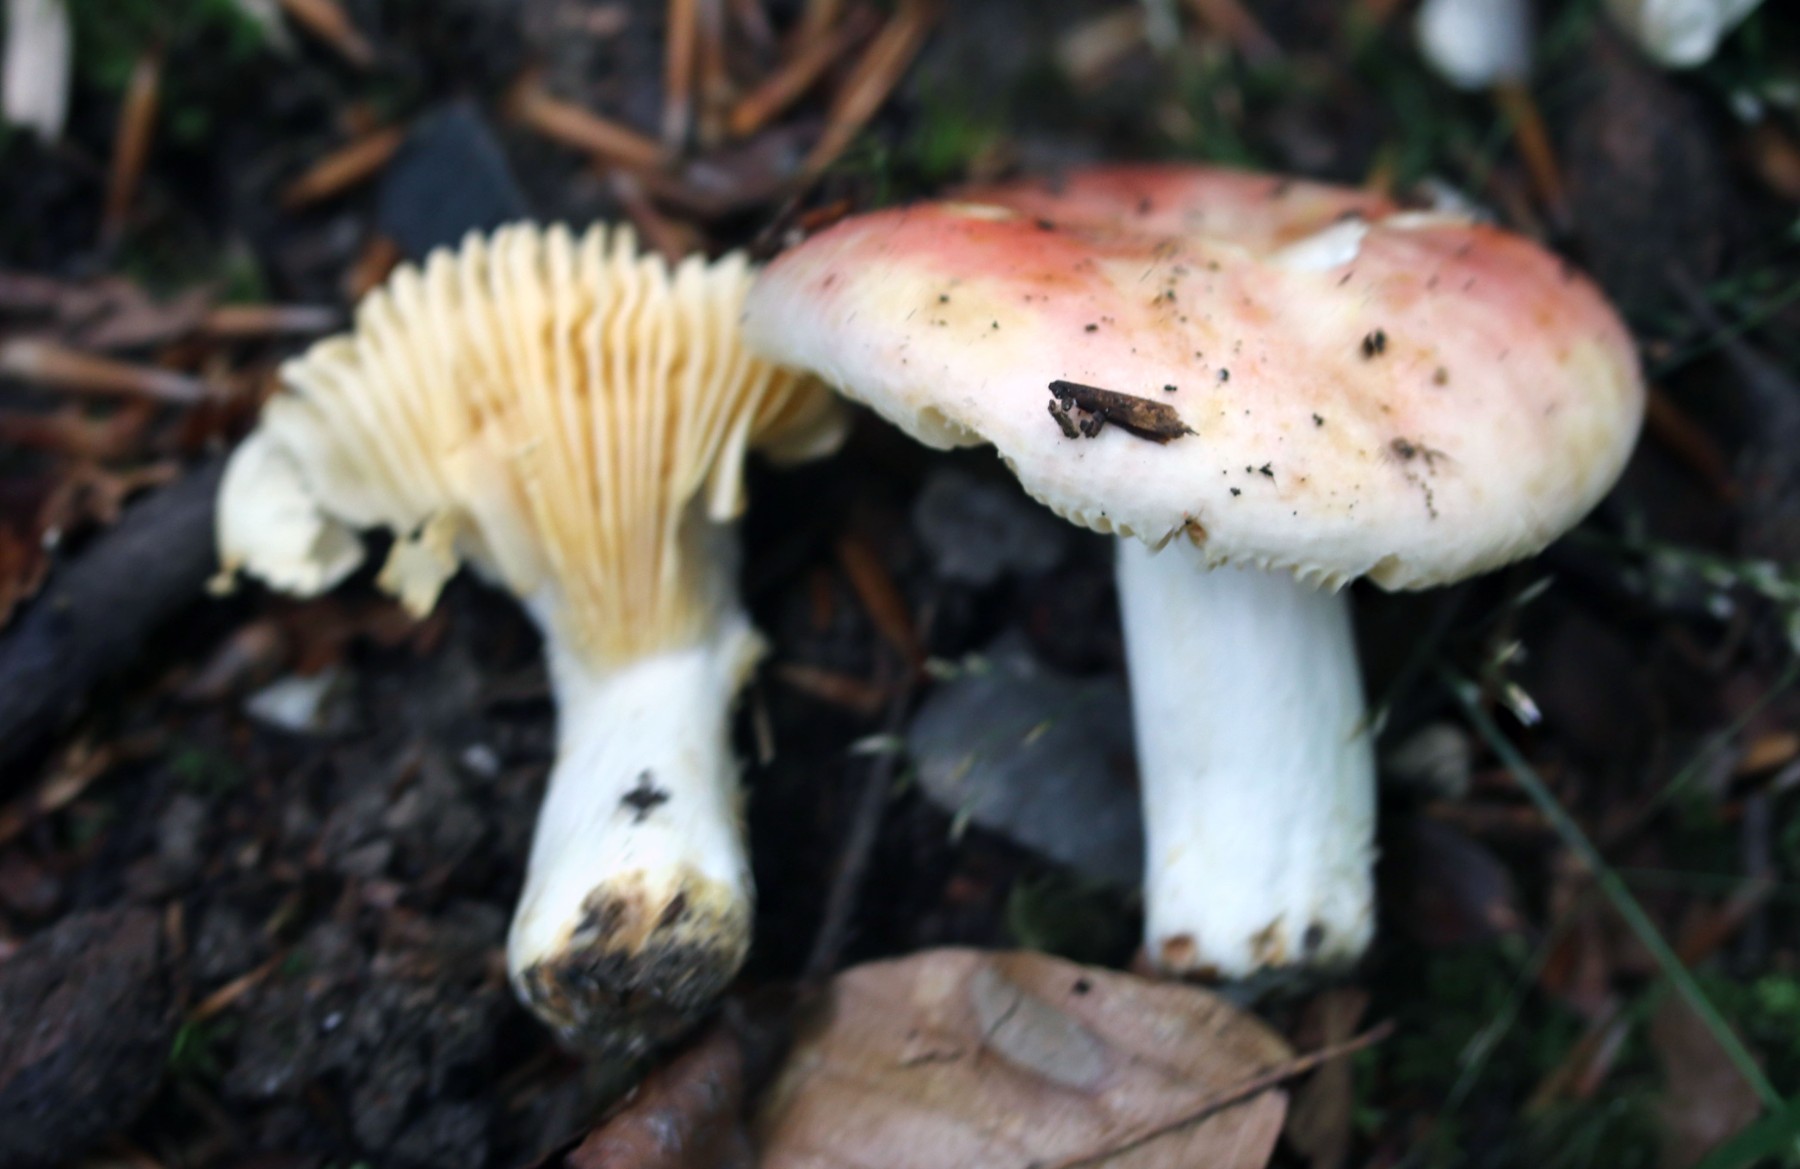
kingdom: Fungi
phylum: Basidiomycota
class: Agaricomycetes
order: Russulales
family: Russulaceae
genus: Russula
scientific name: Russula maculata
